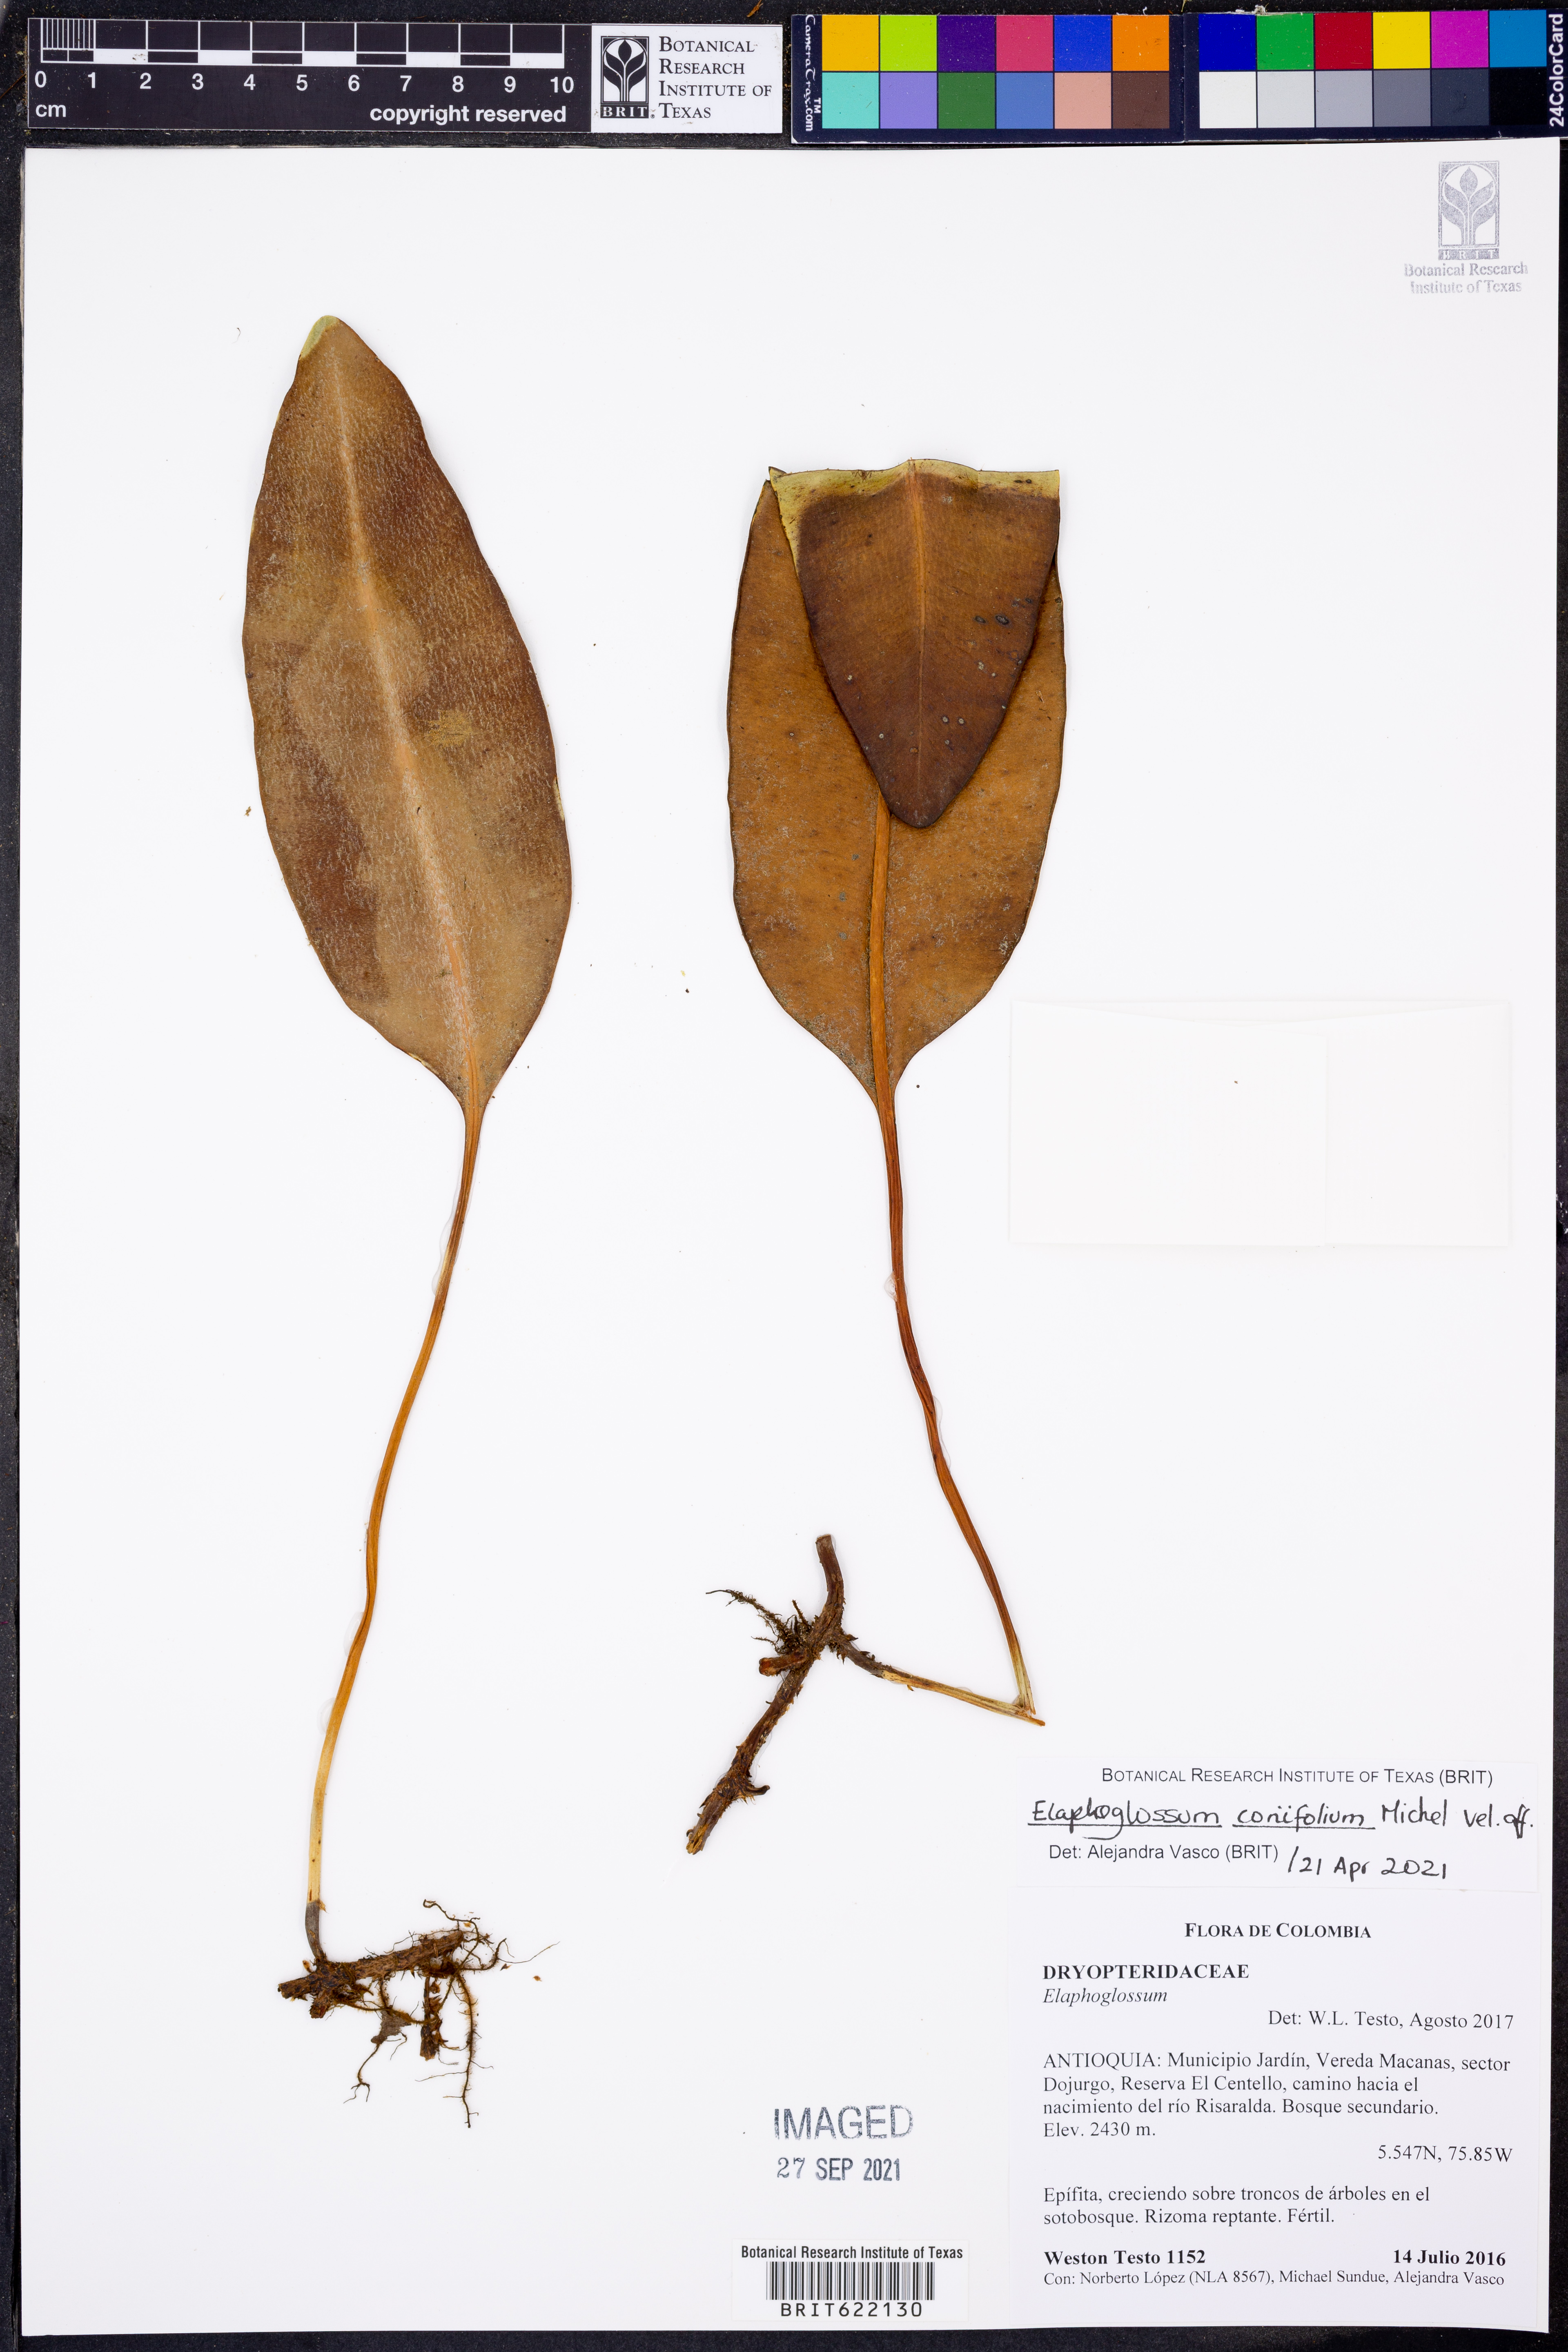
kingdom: Plantae
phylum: Tracheophyta
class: Polypodiopsida
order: Polypodiales
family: Dryopteridaceae
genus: Elaphoglossum
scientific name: Elaphoglossum coriifolium
